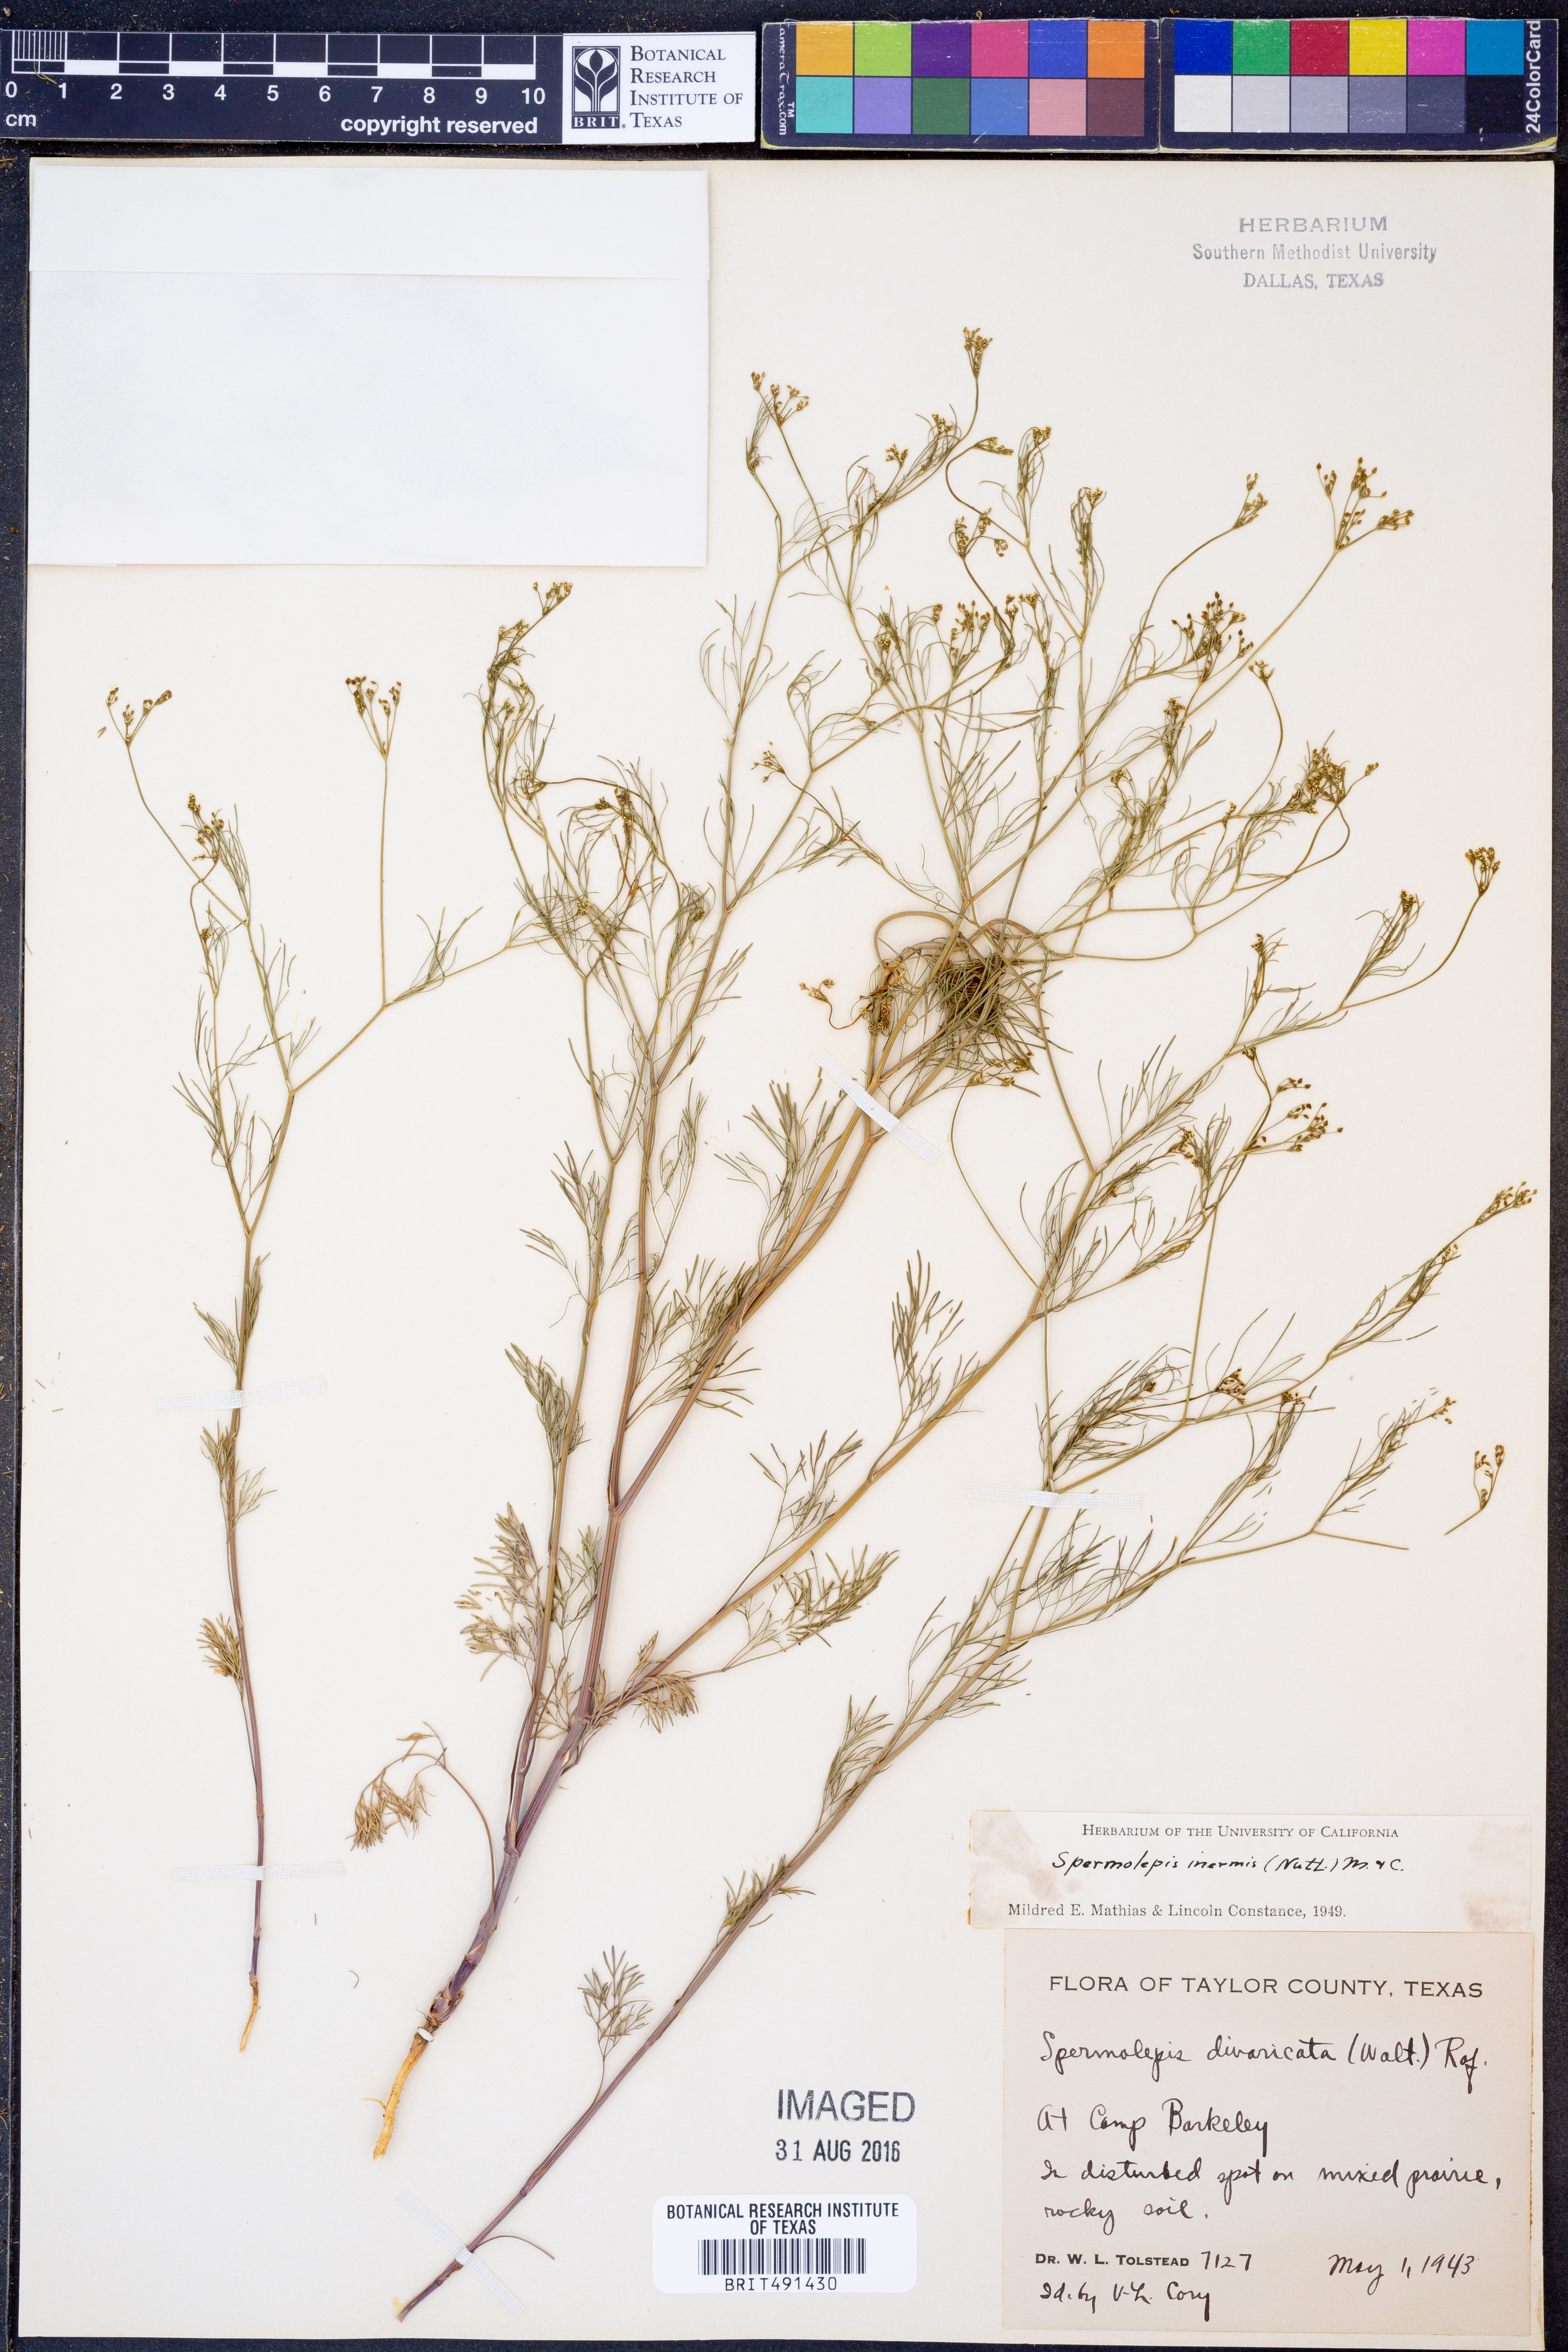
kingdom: Plantae
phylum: Tracheophyta
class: Magnoliopsida
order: Apiales
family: Apiaceae
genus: Spermolepis
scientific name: Spermolepis inermis
